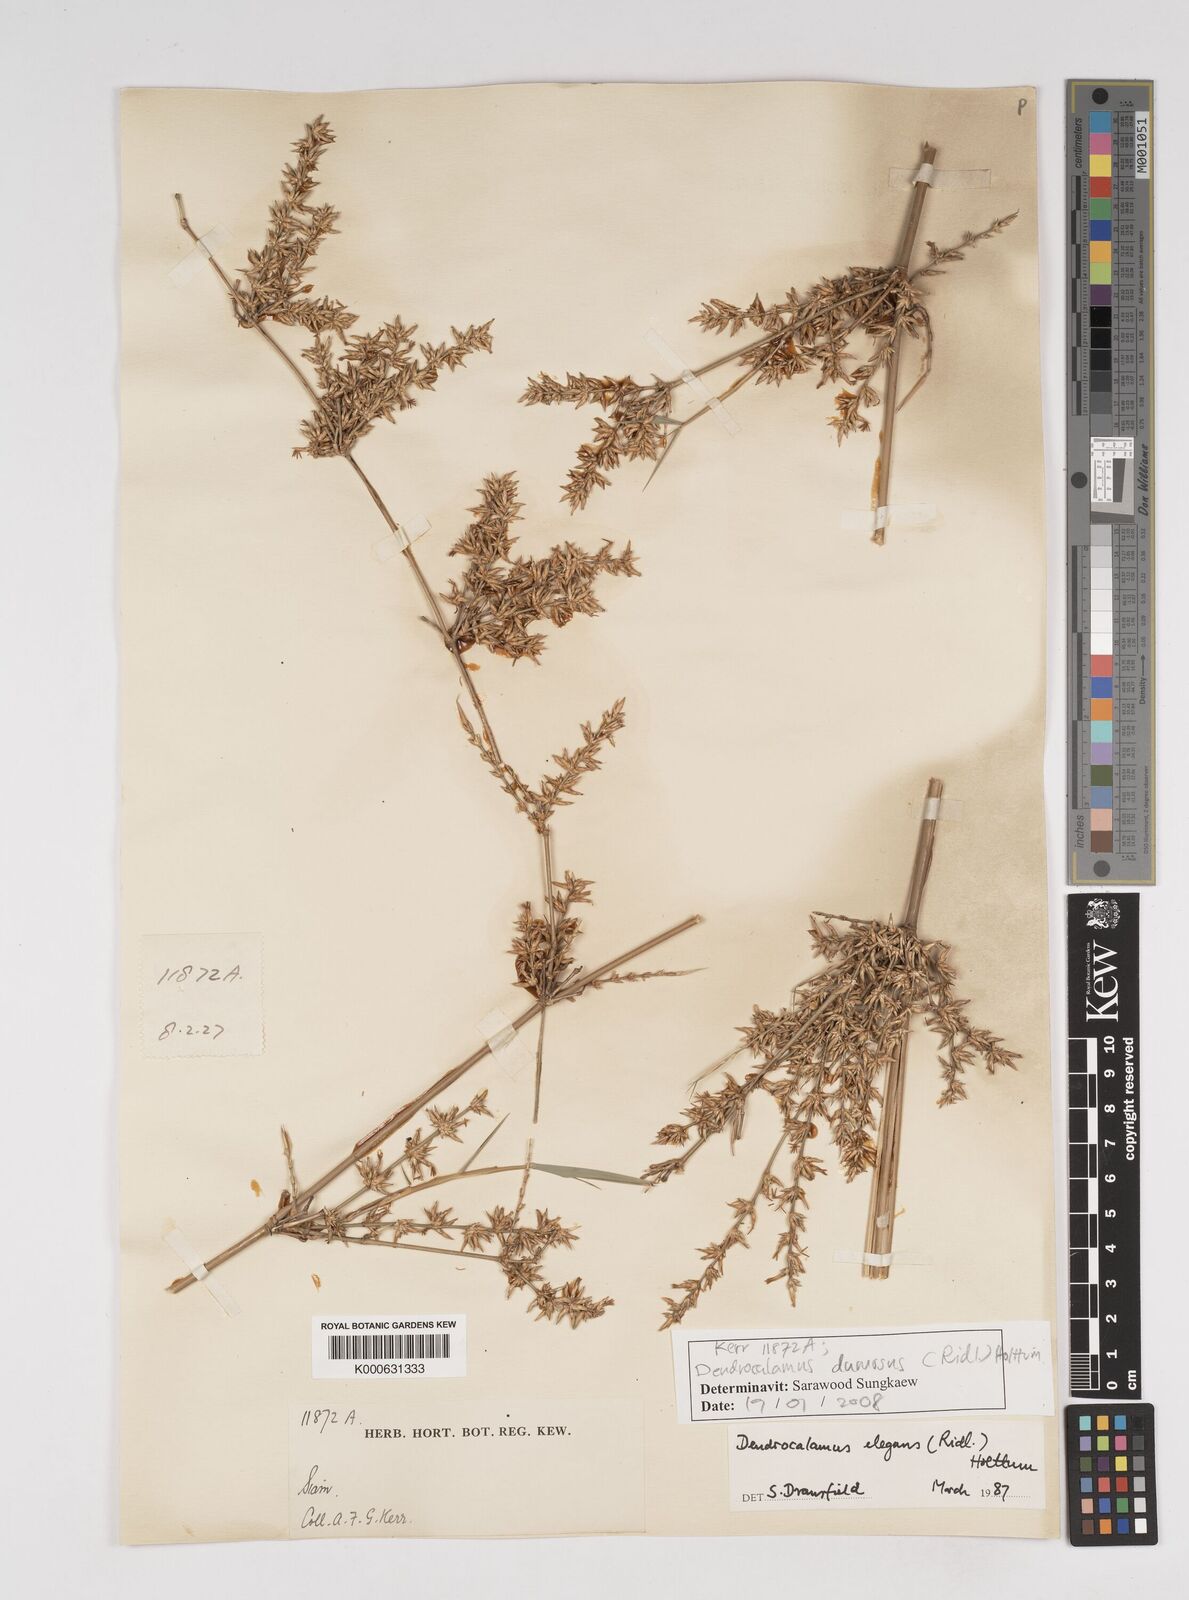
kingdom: Plantae
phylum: Tracheophyta
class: Liliopsida
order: Poales
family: Poaceae
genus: Dendrocalamus
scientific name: Dendrocalamus dumosus
